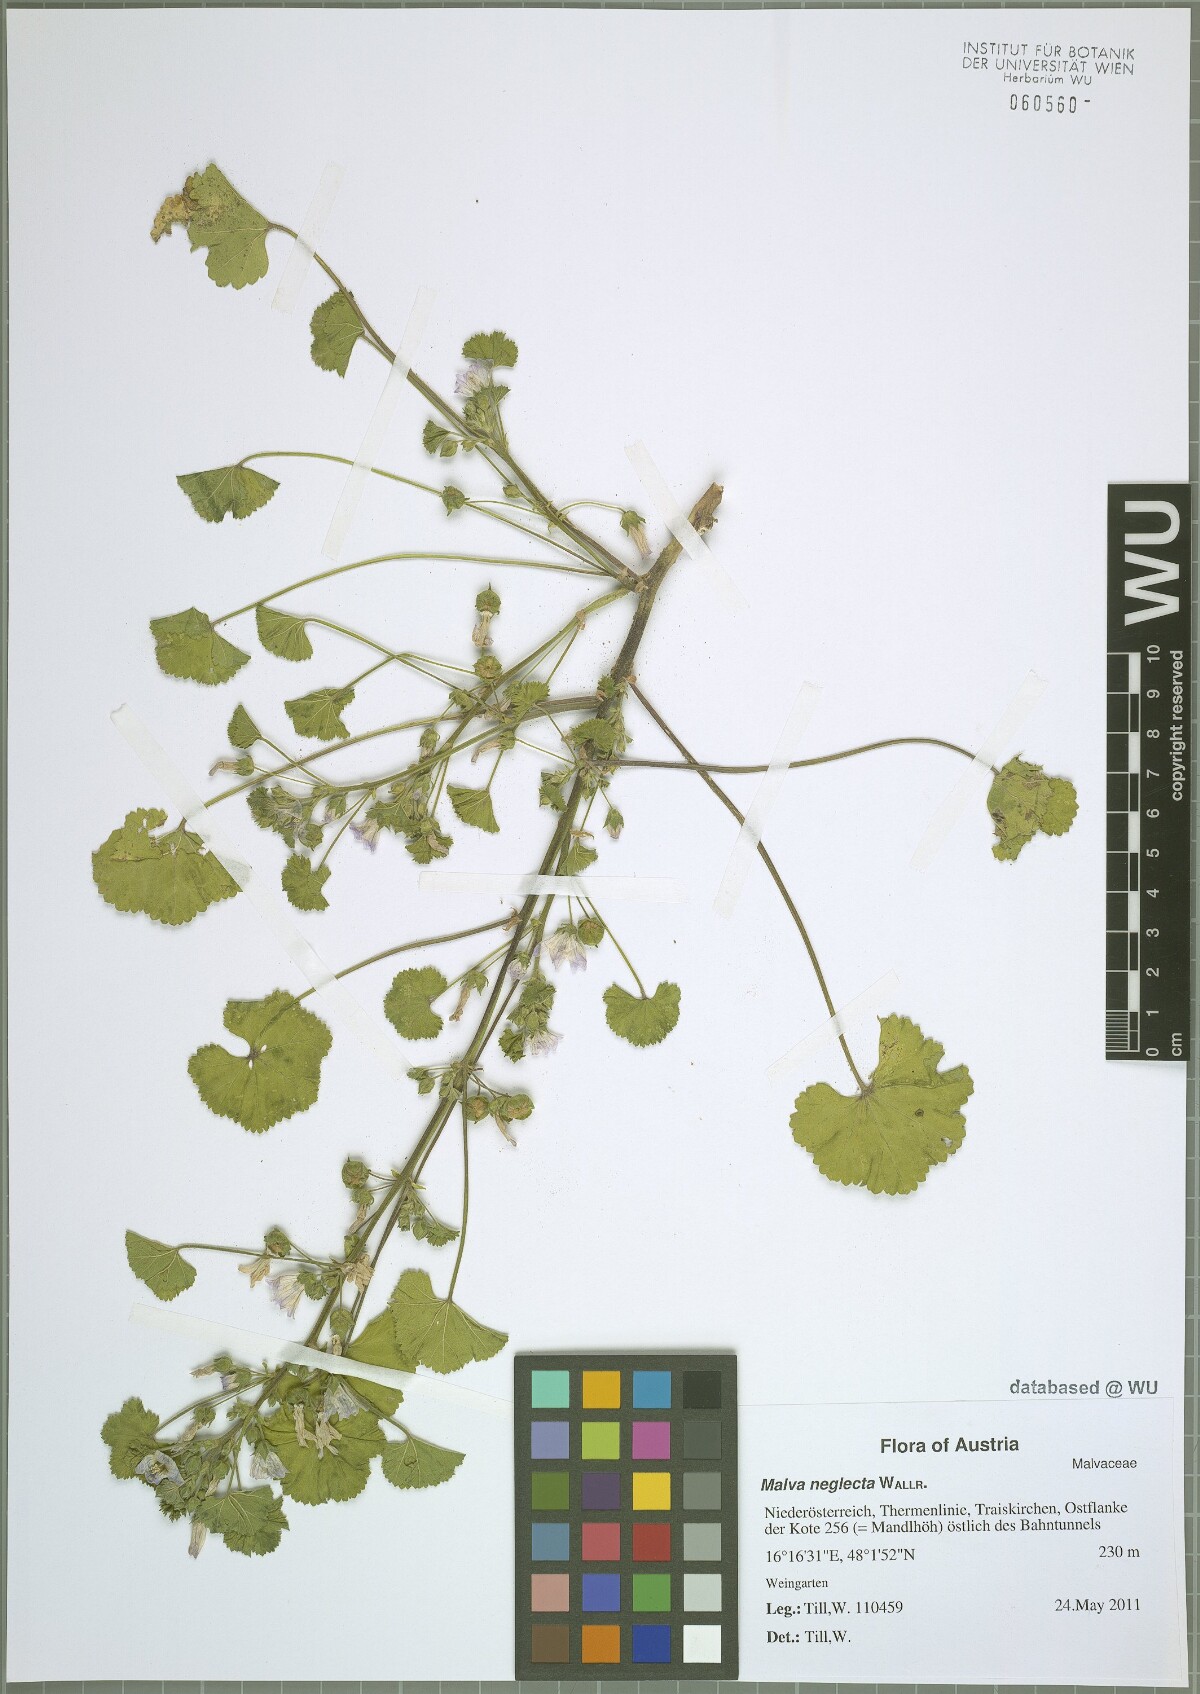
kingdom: Plantae
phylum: Tracheophyta
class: Magnoliopsida
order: Malvales
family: Malvaceae
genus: Malva
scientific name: Malva neglecta
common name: Common mallow
